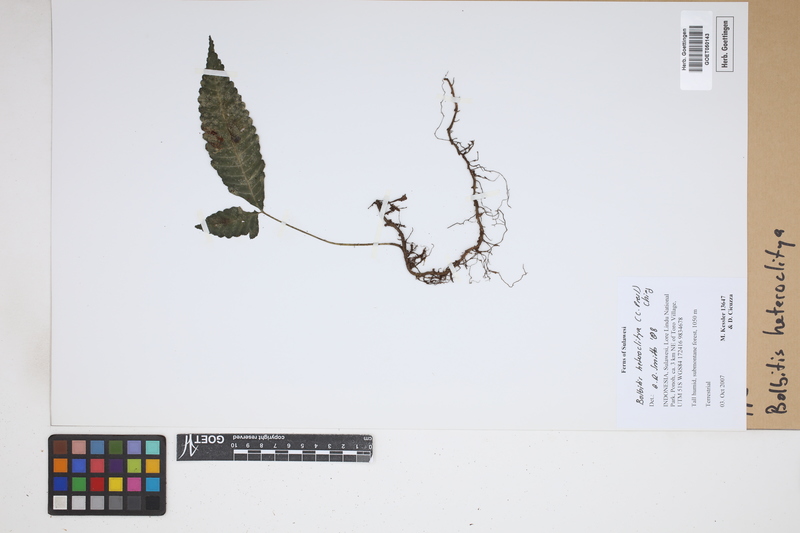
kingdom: Plantae
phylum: Tracheophyta
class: Polypodiopsida
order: Polypodiales
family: Dryopteridaceae
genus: Bolbitis
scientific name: Bolbitis heteroclita
